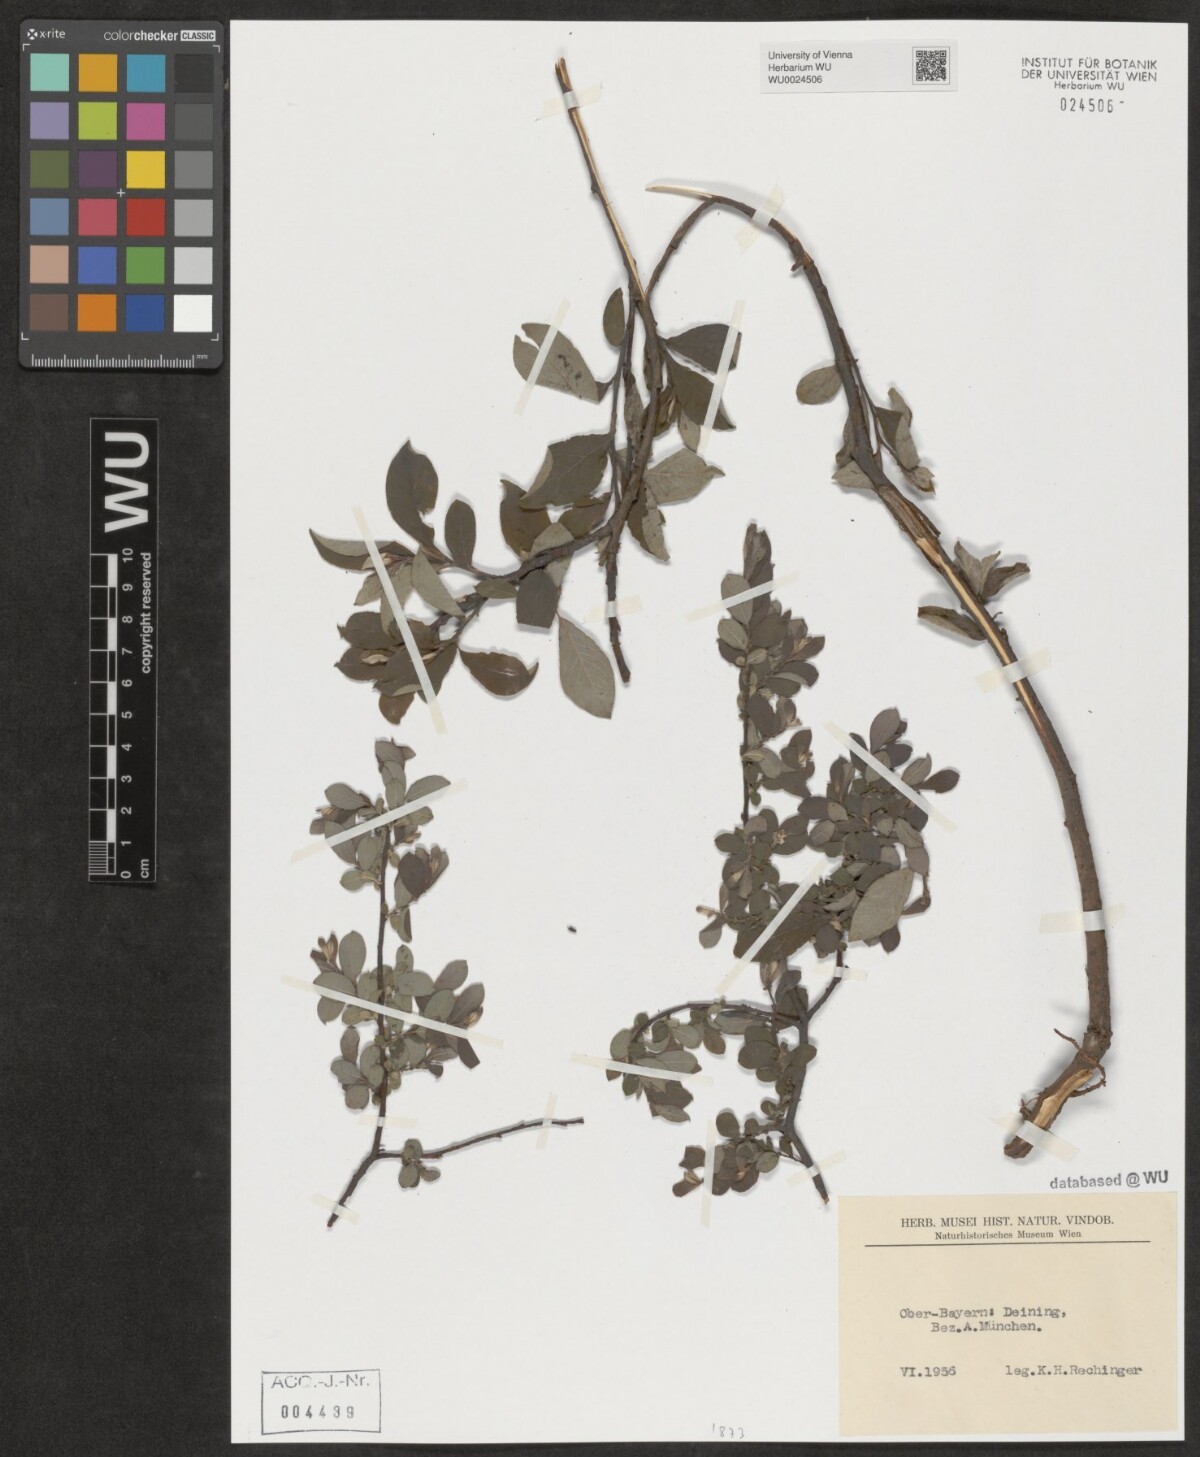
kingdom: Plantae
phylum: Tracheophyta
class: Magnoliopsida
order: Malpighiales
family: Salicaceae
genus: Salix
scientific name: Salix
